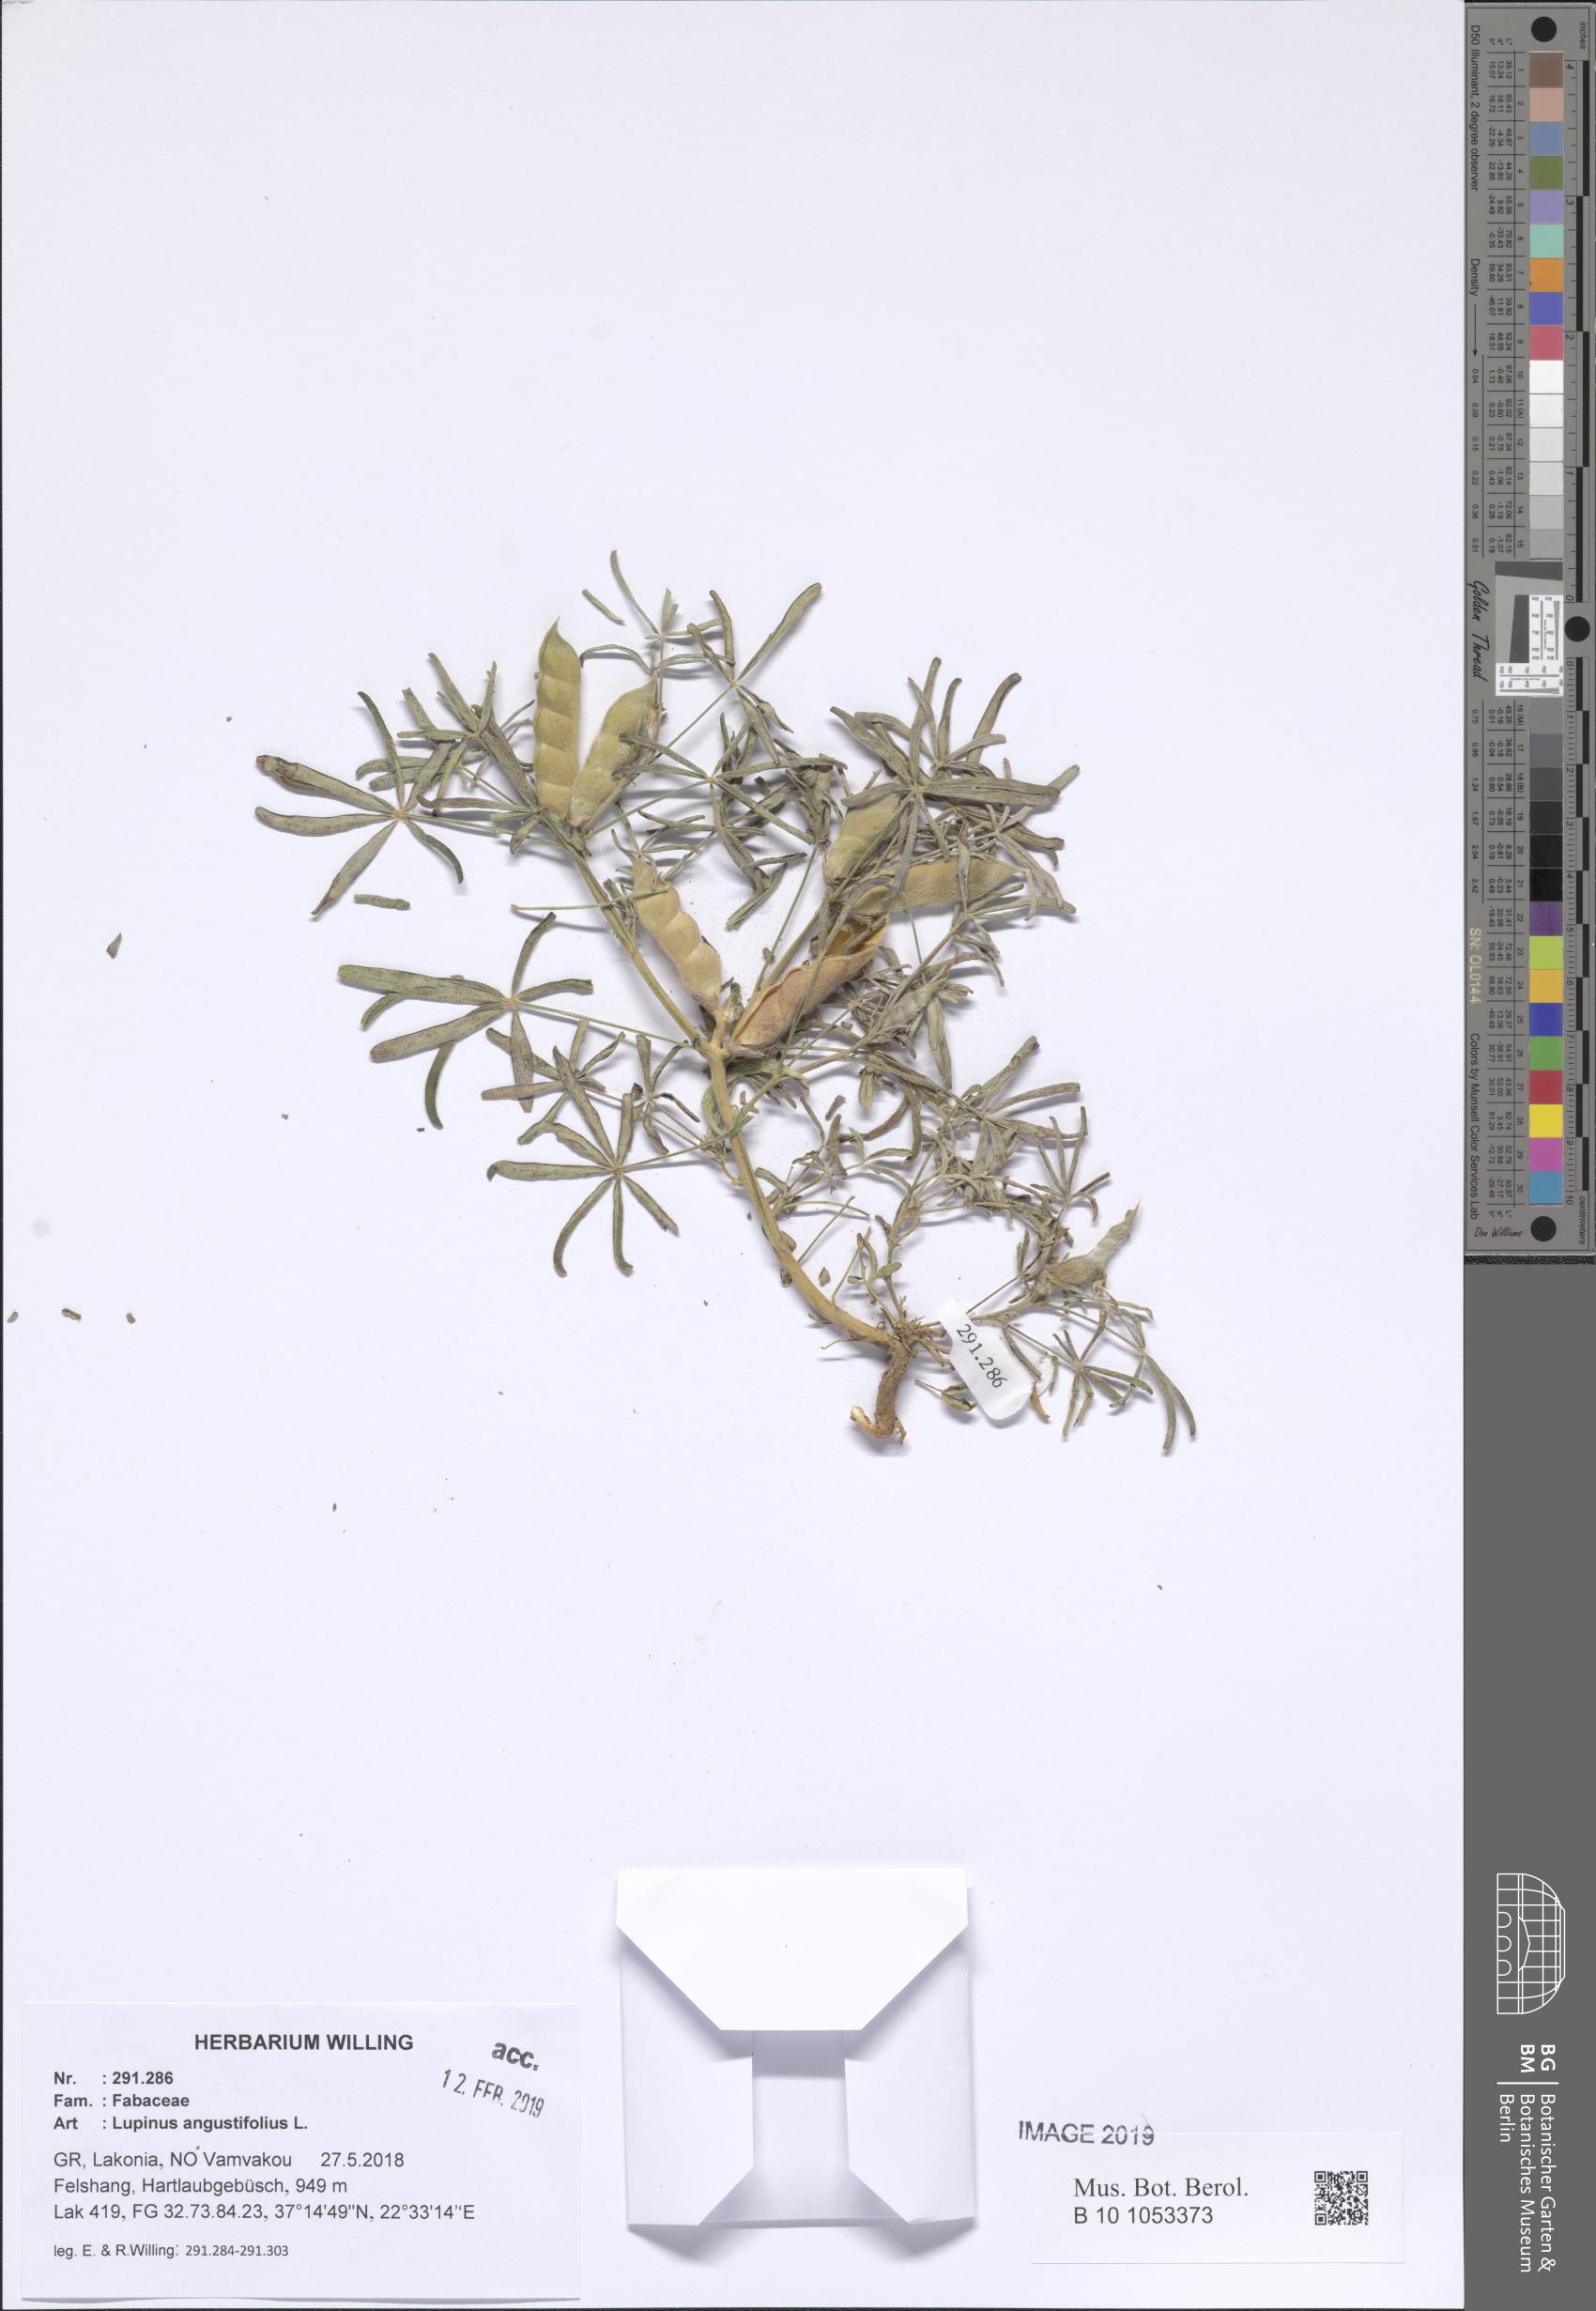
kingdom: Plantae
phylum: Tracheophyta
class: Magnoliopsida
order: Fabales
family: Fabaceae
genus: Lupinus
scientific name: Lupinus angustifolius
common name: Narrow-leaved lupin
